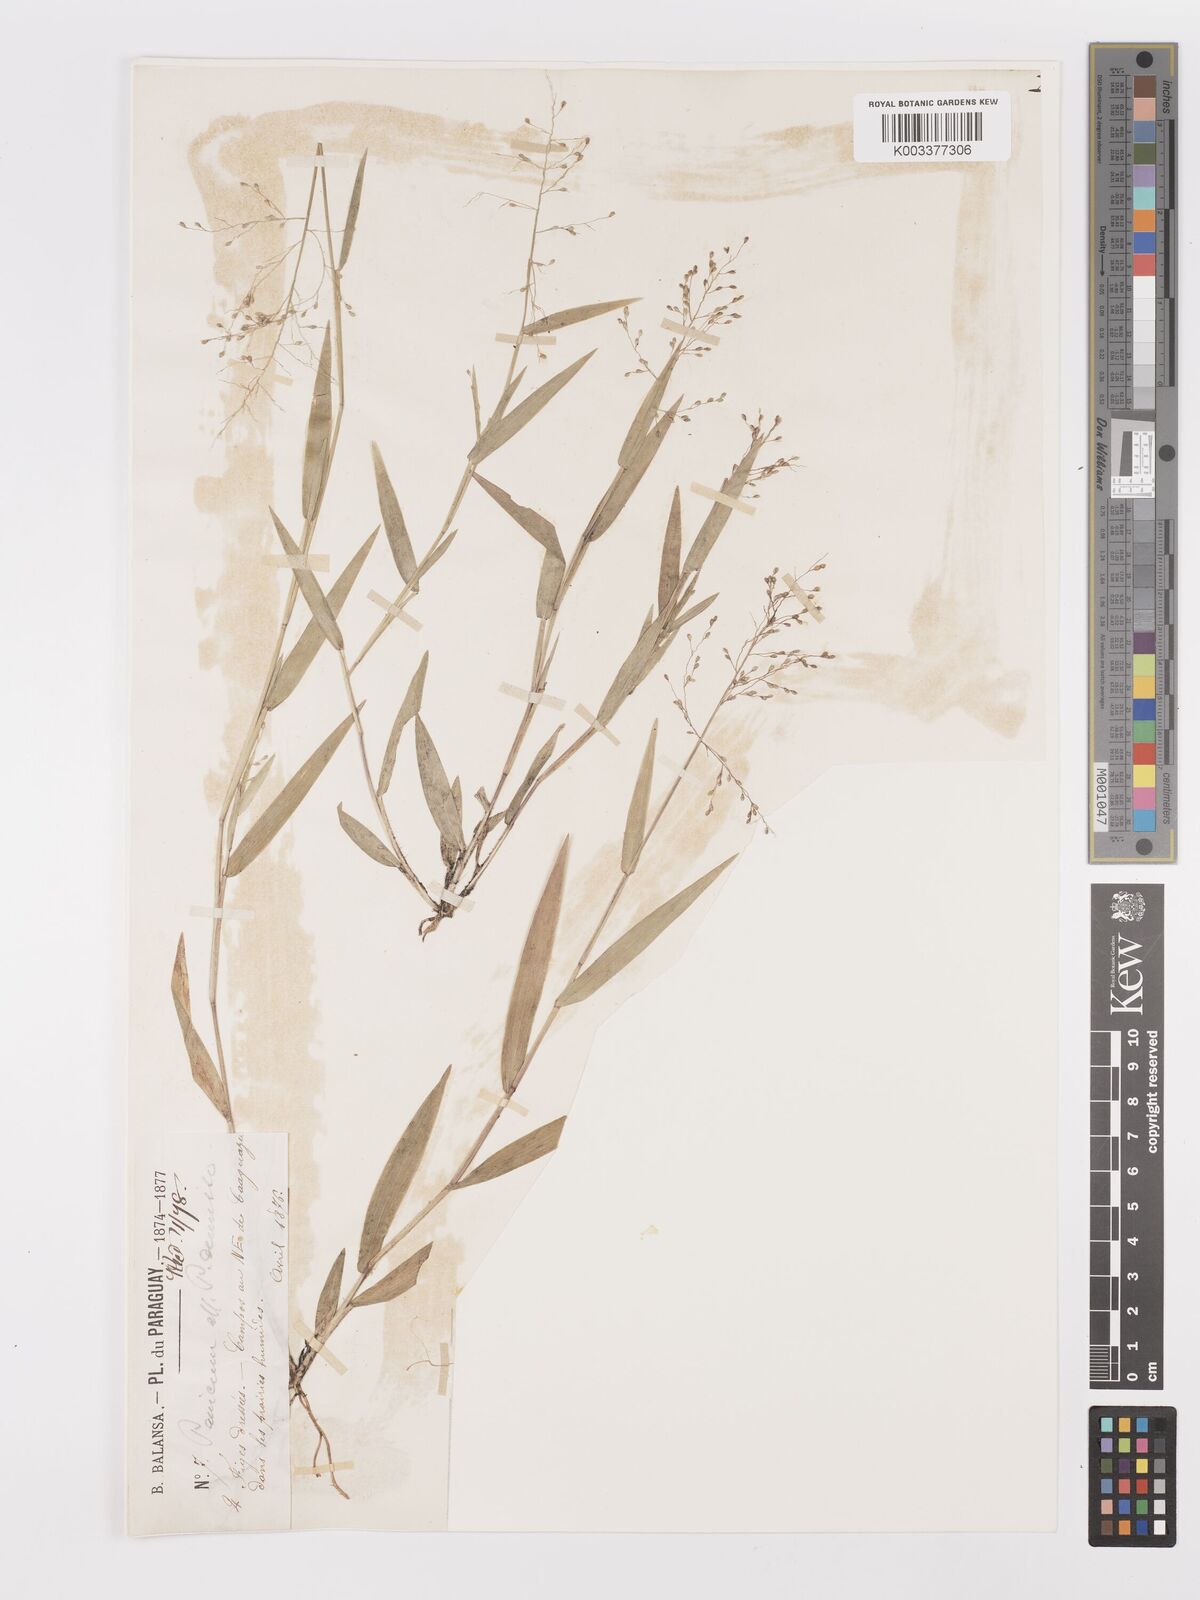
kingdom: Plantae
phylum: Tracheophyta
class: Liliopsida
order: Poales
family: Poaceae
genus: Dichanthelium
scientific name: Dichanthelium stigmosum
